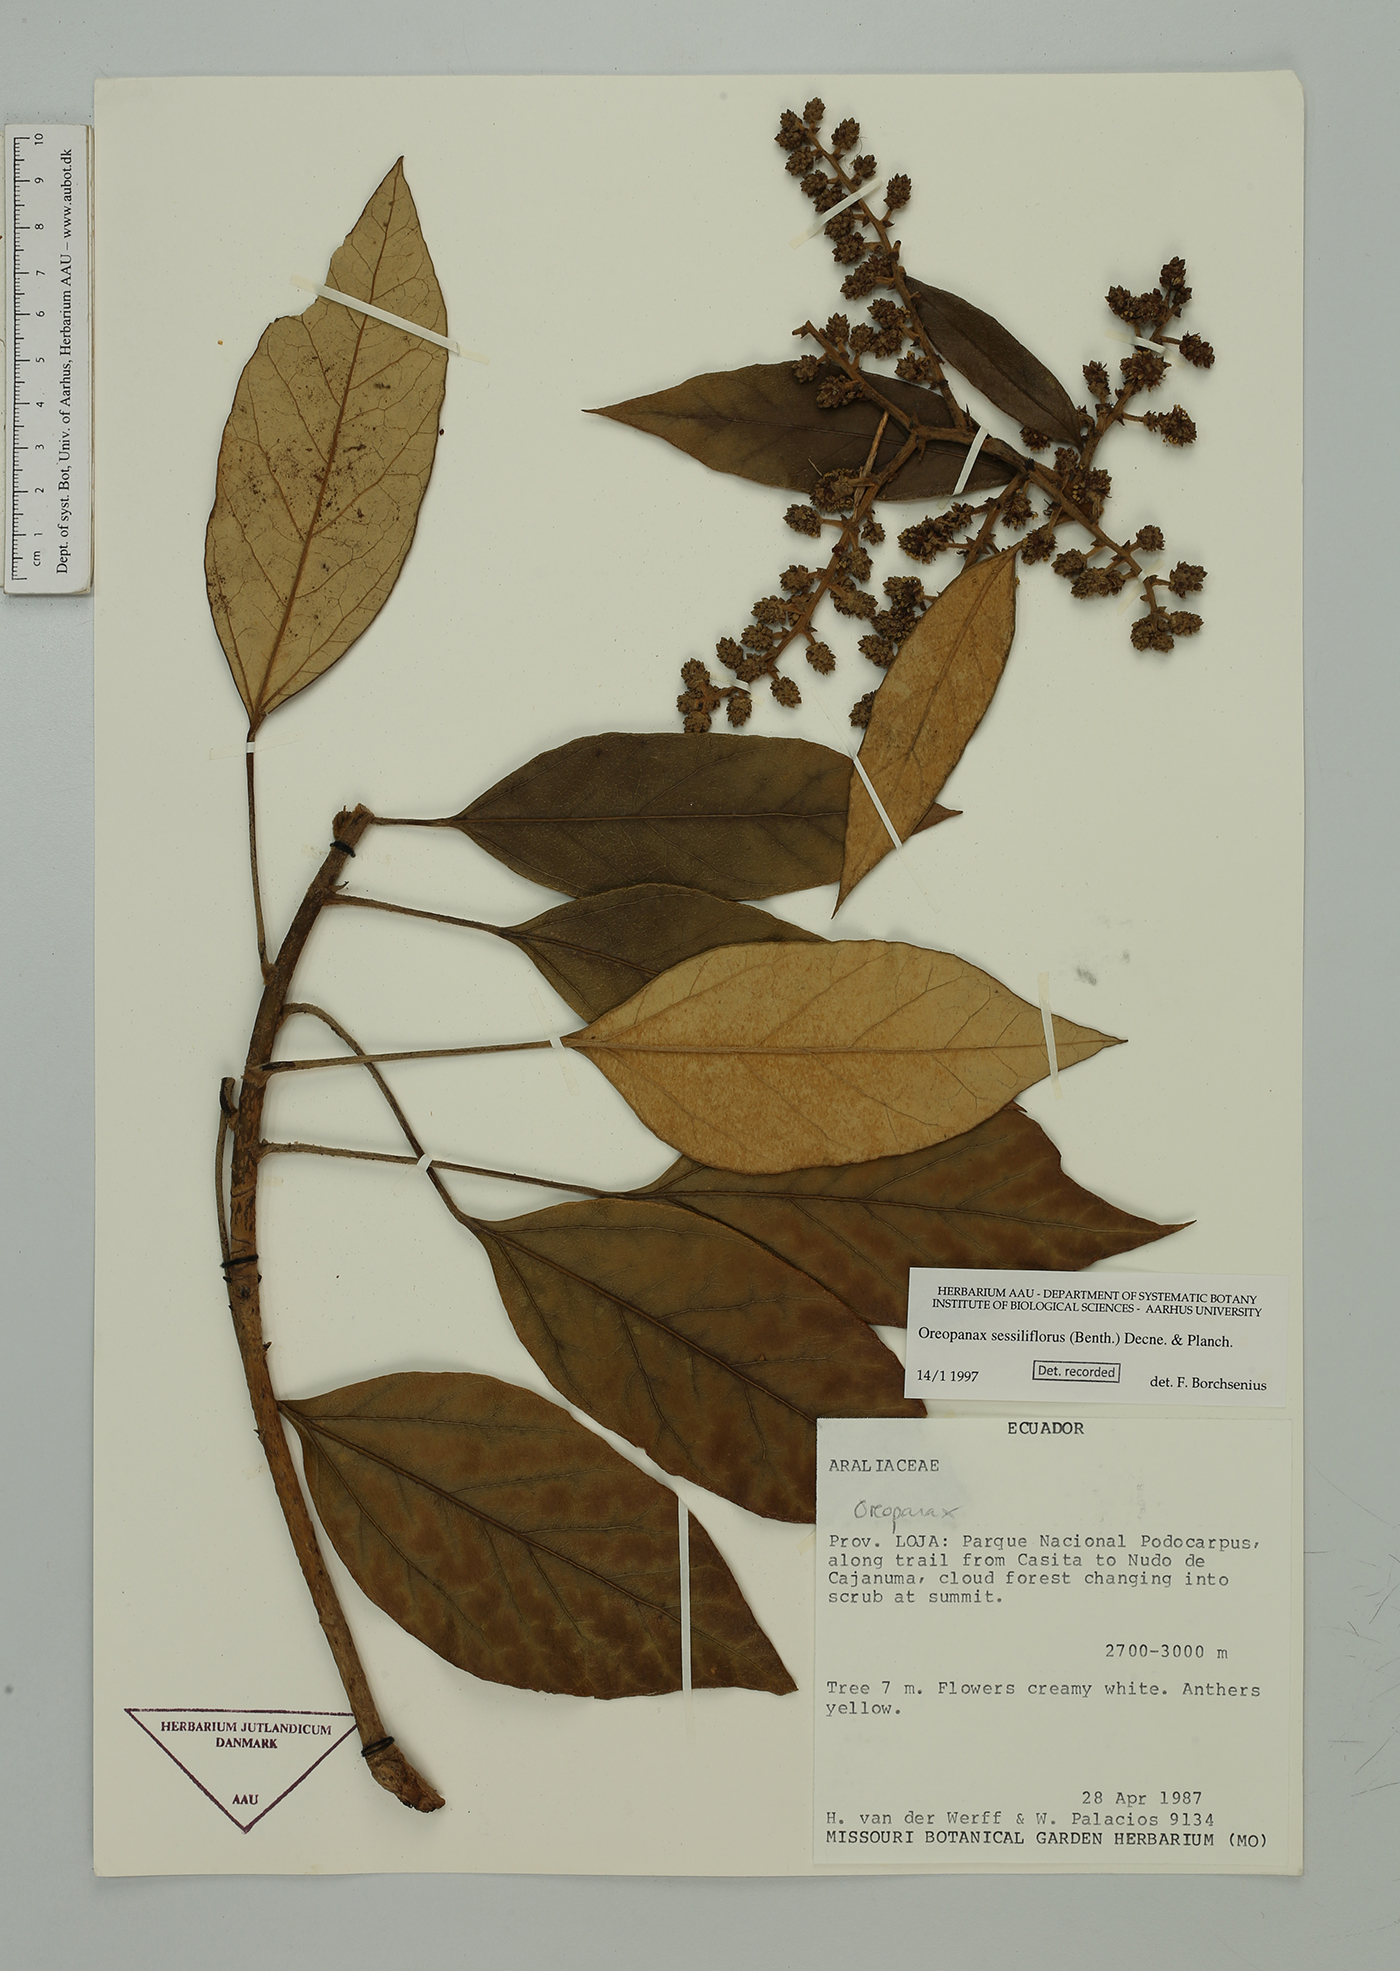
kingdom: Plantae
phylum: Tracheophyta
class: Magnoliopsida
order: Apiales
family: Araliaceae
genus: Oreopanax
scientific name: Oreopanax sessiliflorus
